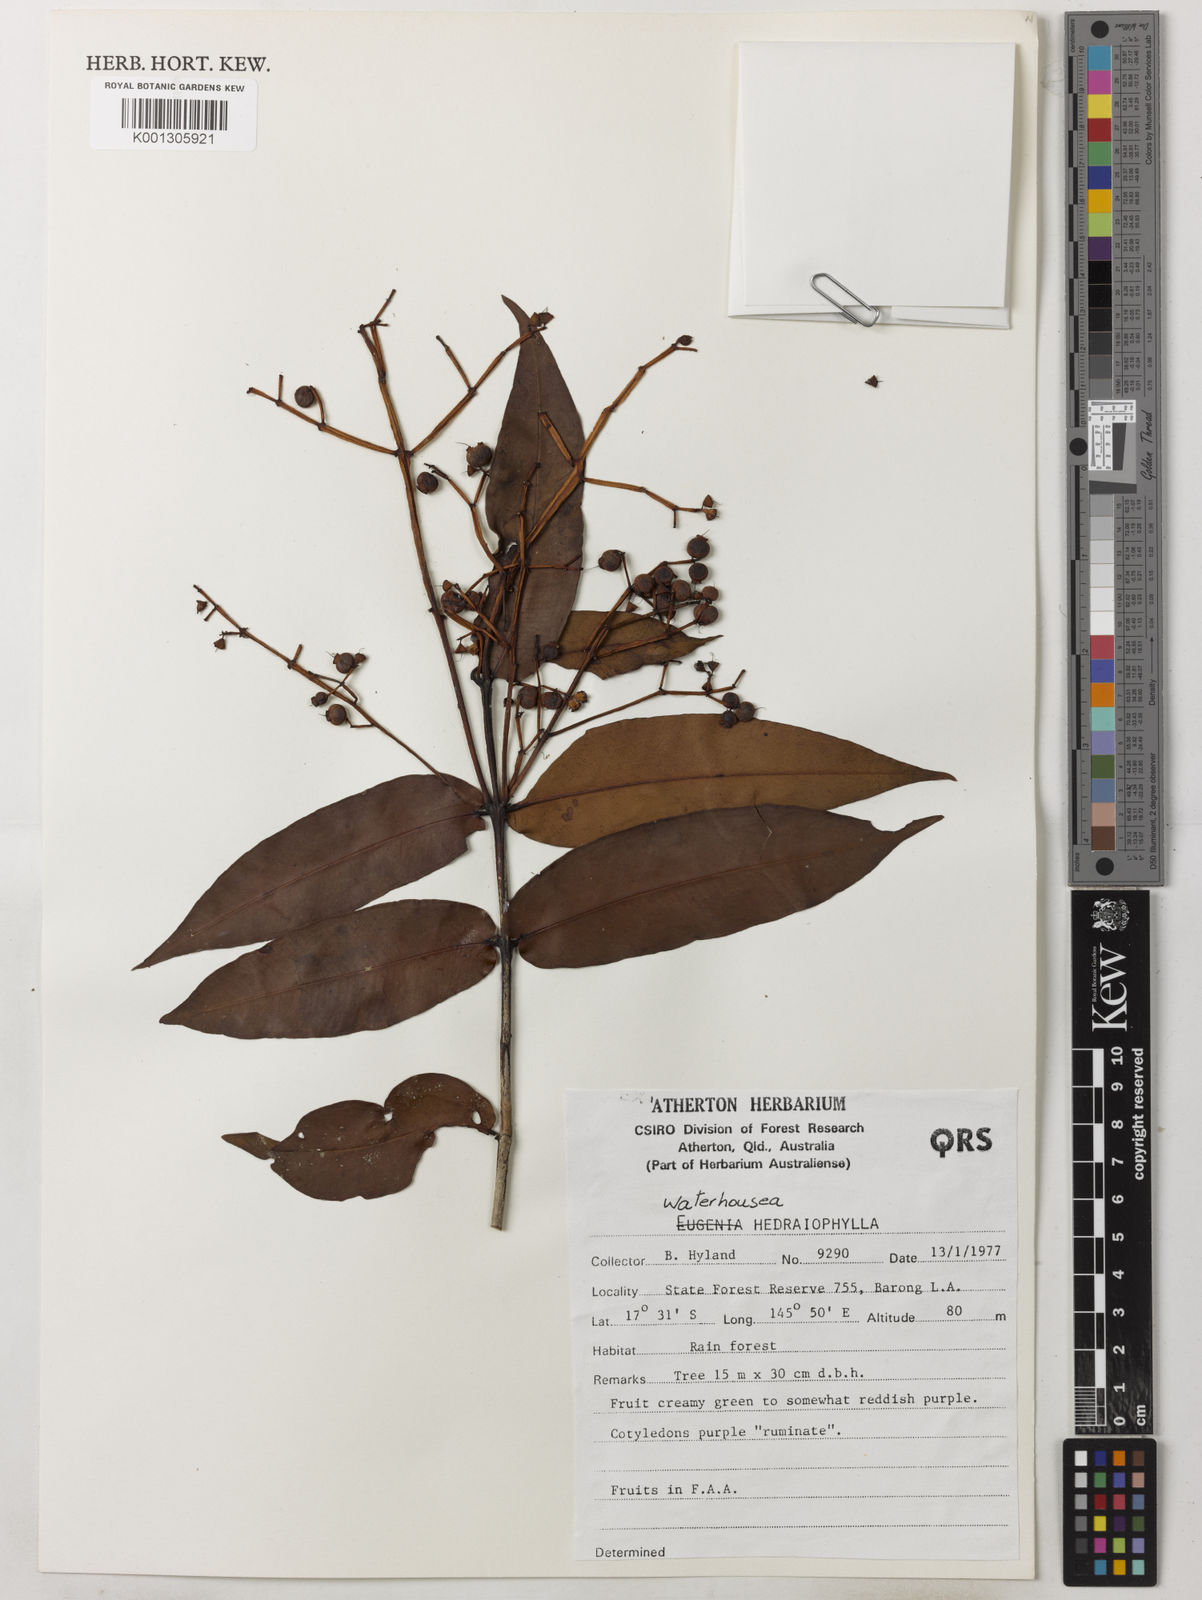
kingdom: Plantae
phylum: Tracheophyta
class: Magnoliopsida
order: Myrtales
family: Myrtaceae
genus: Syzygium
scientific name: Syzygium hedraiophyllum
